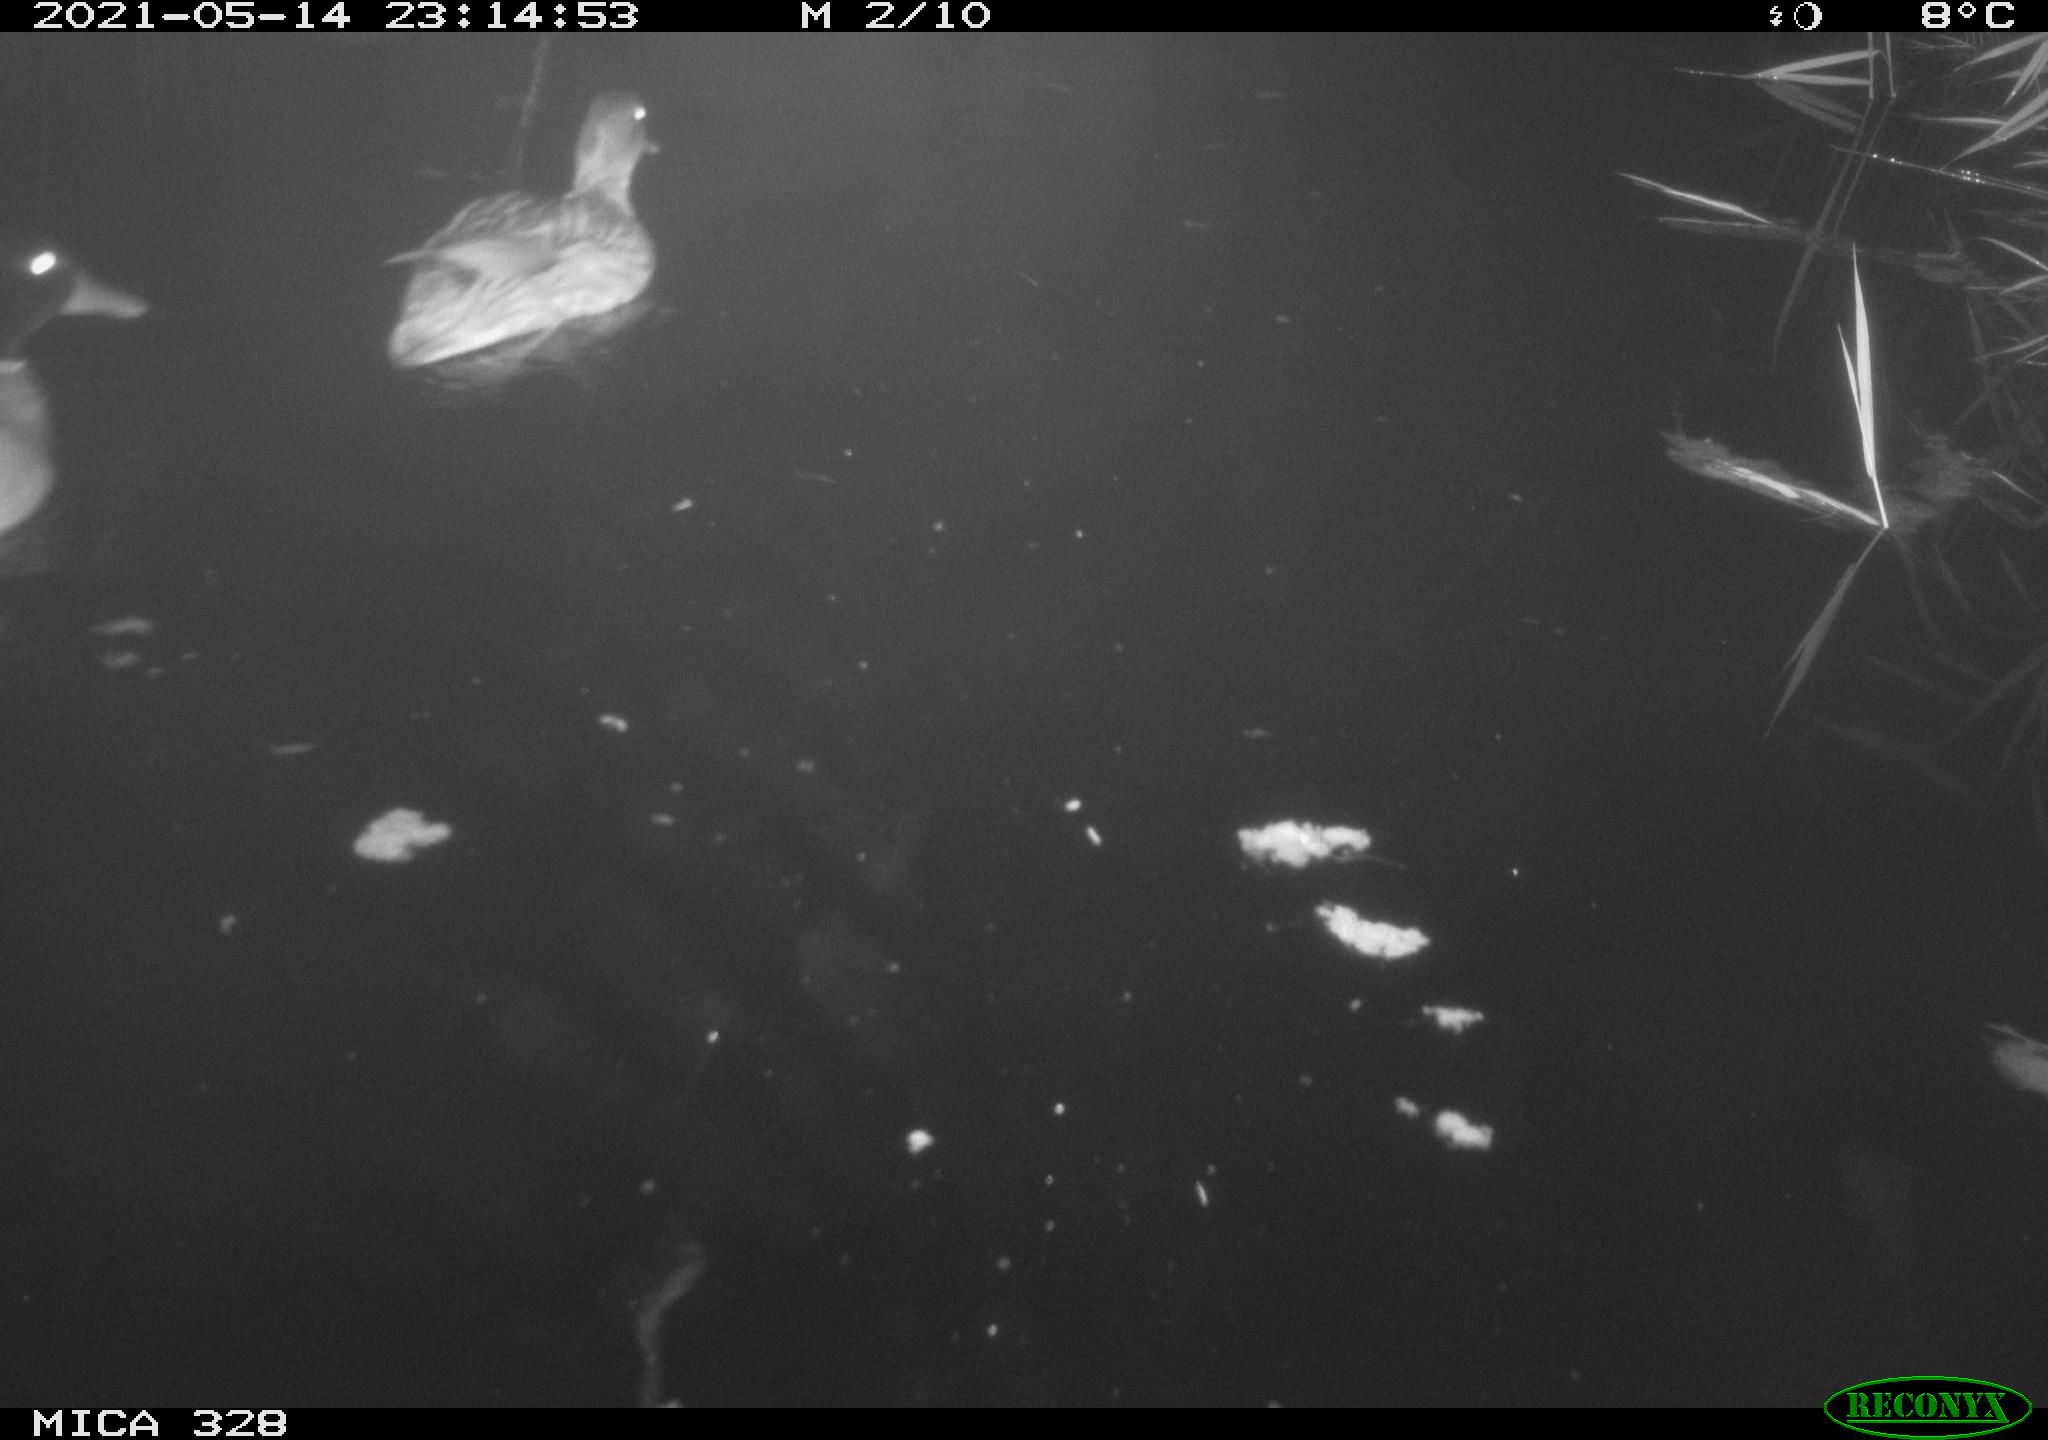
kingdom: Animalia
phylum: Chordata
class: Aves
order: Anseriformes
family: Anatidae
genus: Anas
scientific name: Anas platyrhynchos
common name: Mallard
